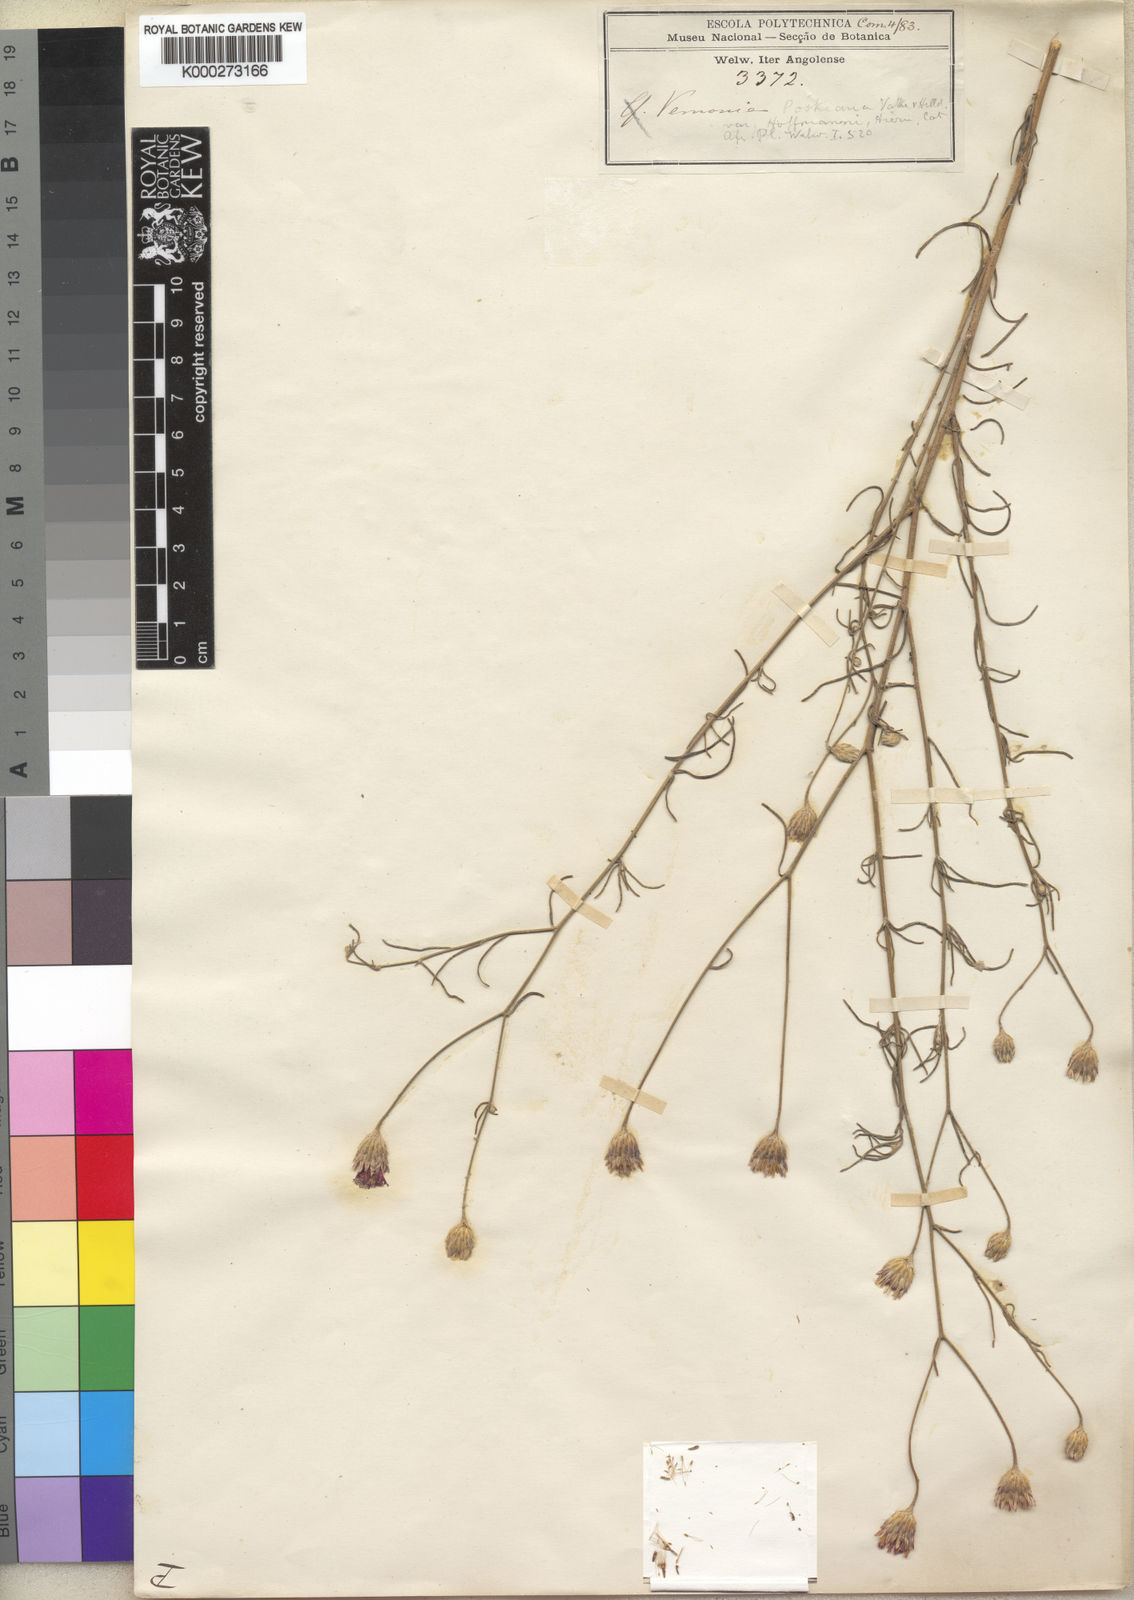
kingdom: Plantae
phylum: Tracheophyta
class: Magnoliopsida
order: Asterales
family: Asteraceae
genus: Crystallopollen
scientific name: Crystallopollen angustifolium
